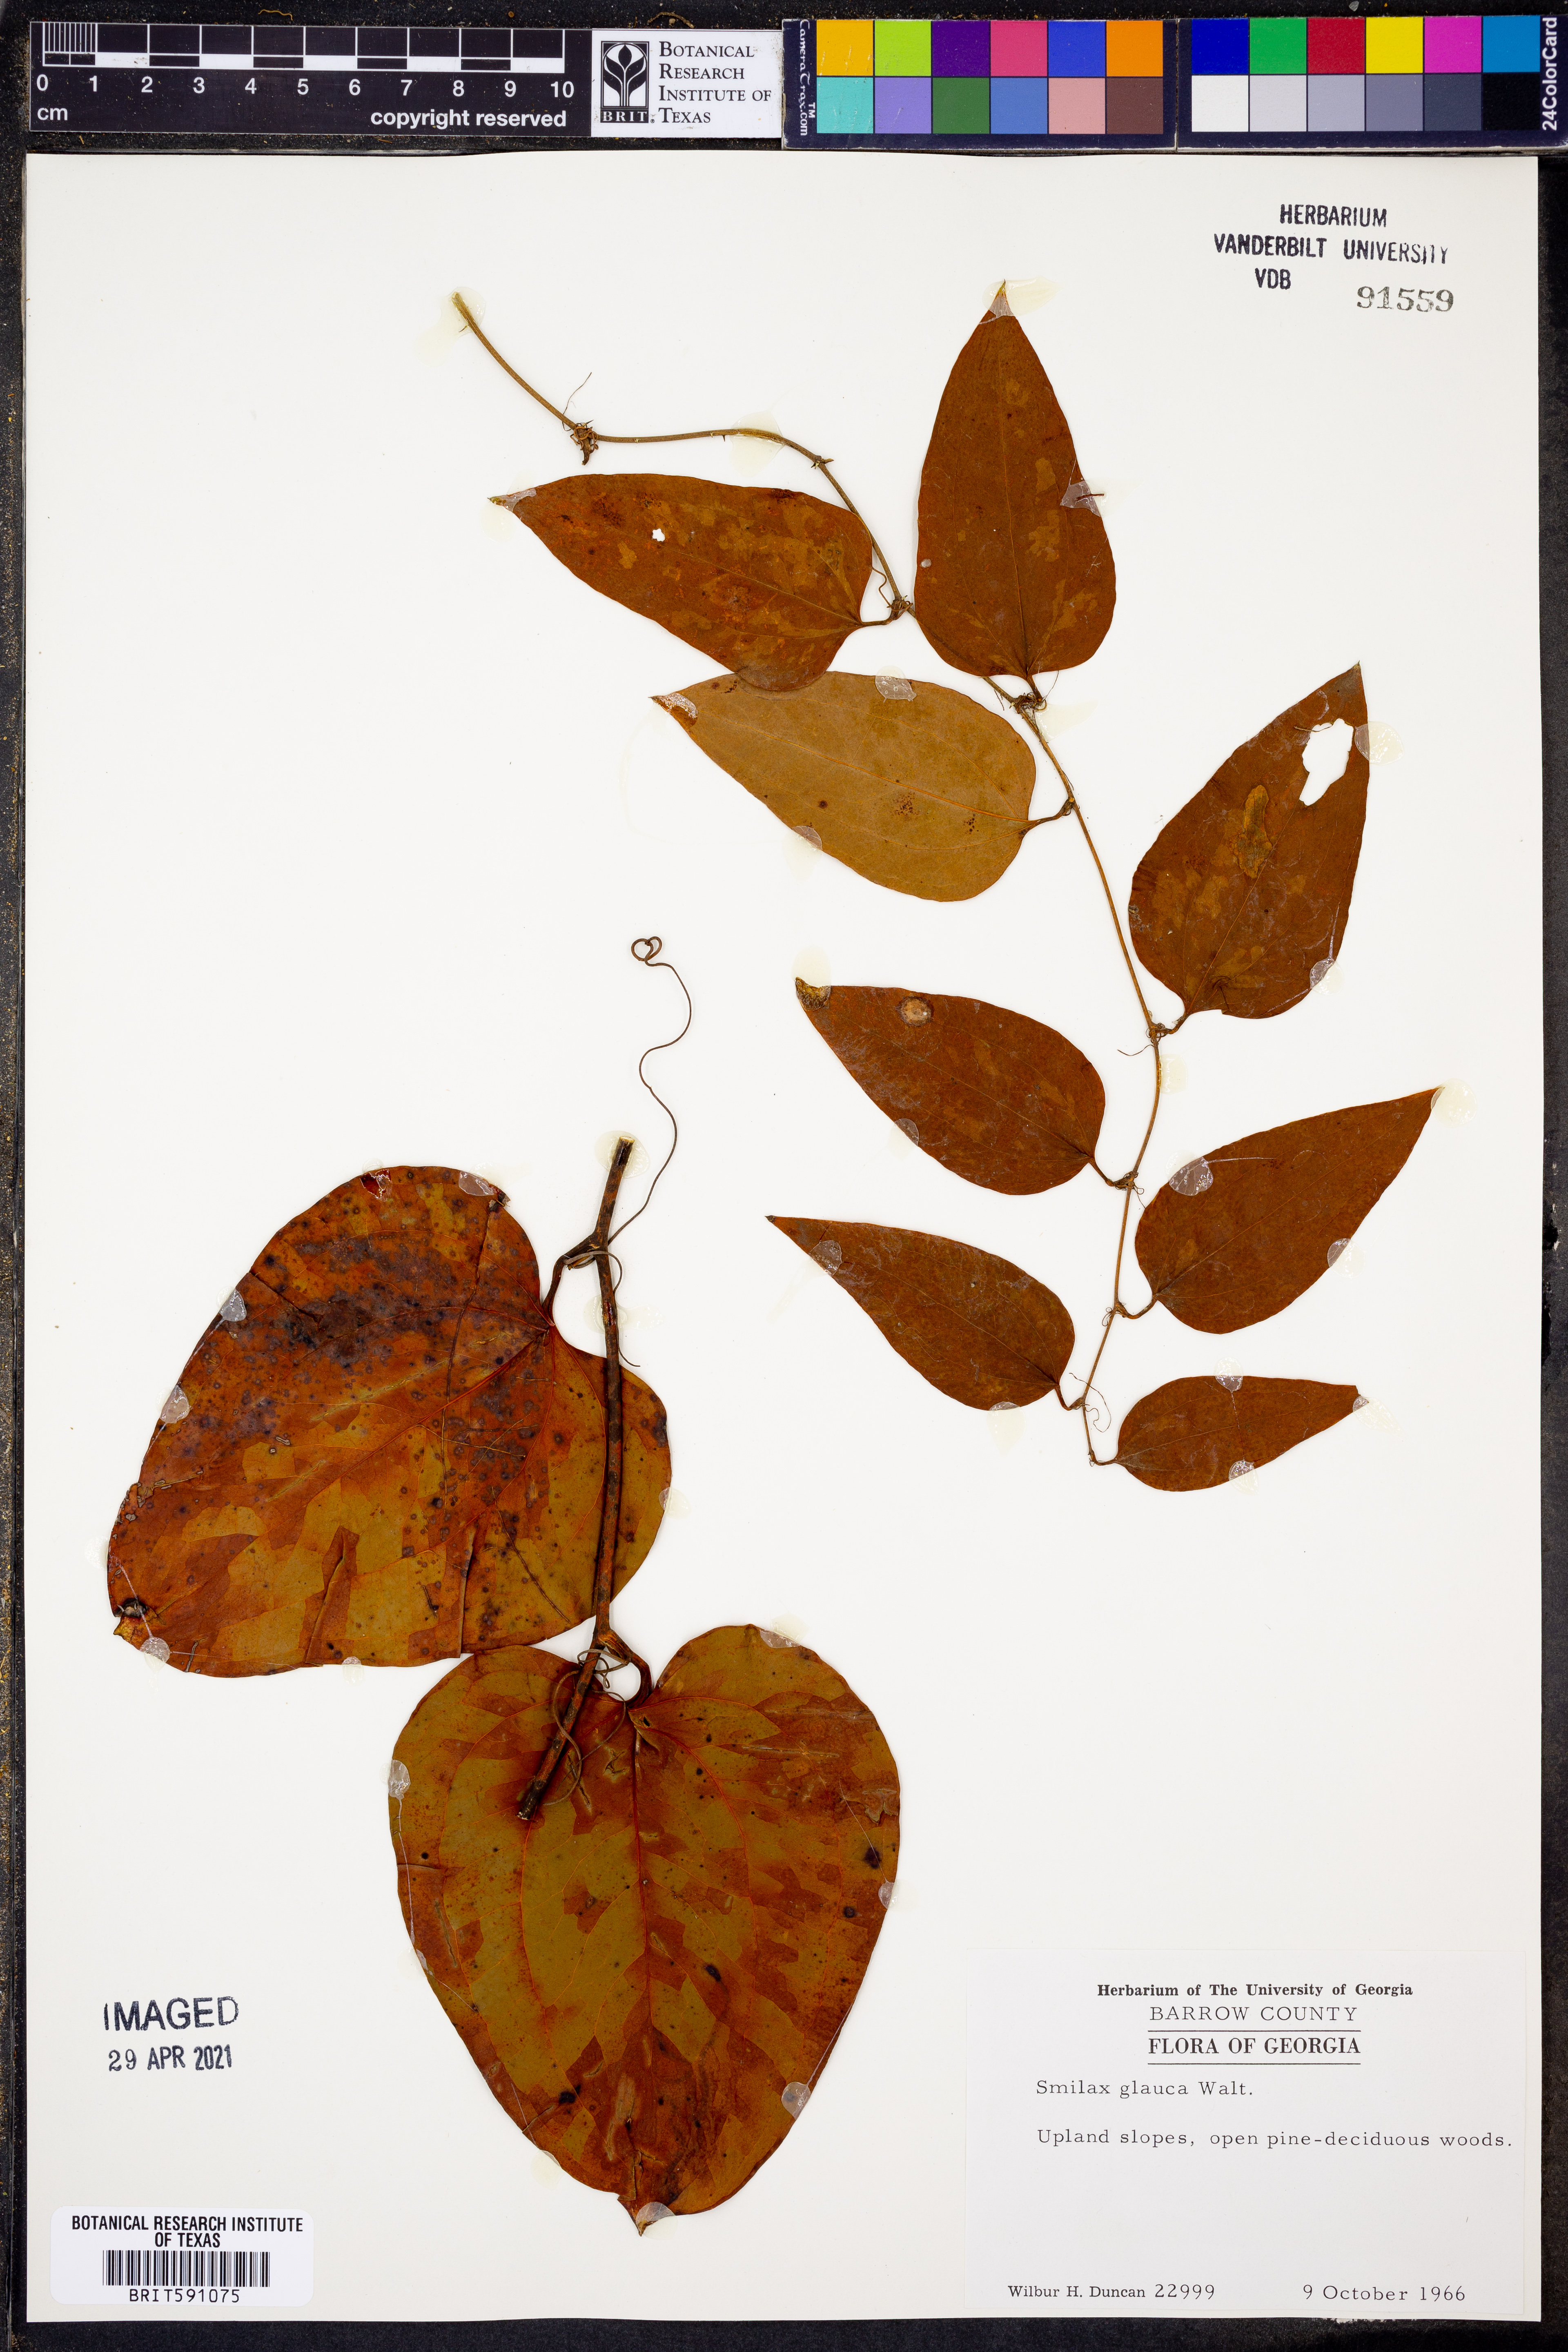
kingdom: Plantae
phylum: Tracheophyta
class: Liliopsida
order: Liliales
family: Smilacaceae
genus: Smilax
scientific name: Smilax glauca
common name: Cat greenbrier
